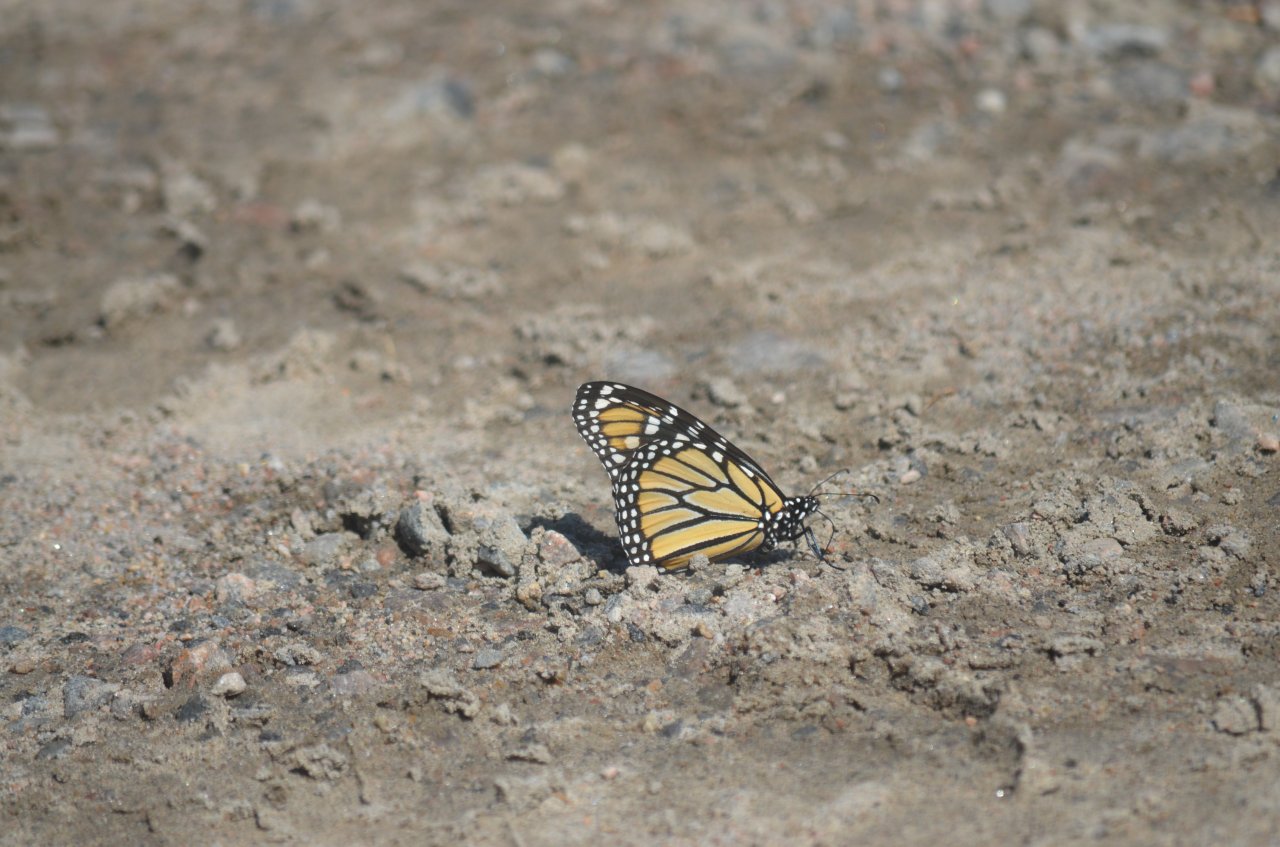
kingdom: Animalia
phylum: Arthropoda
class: Insecta
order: Lepidoptera
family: Nymphalidae
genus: Danaus
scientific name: Danaus plexippus
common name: Monarch
